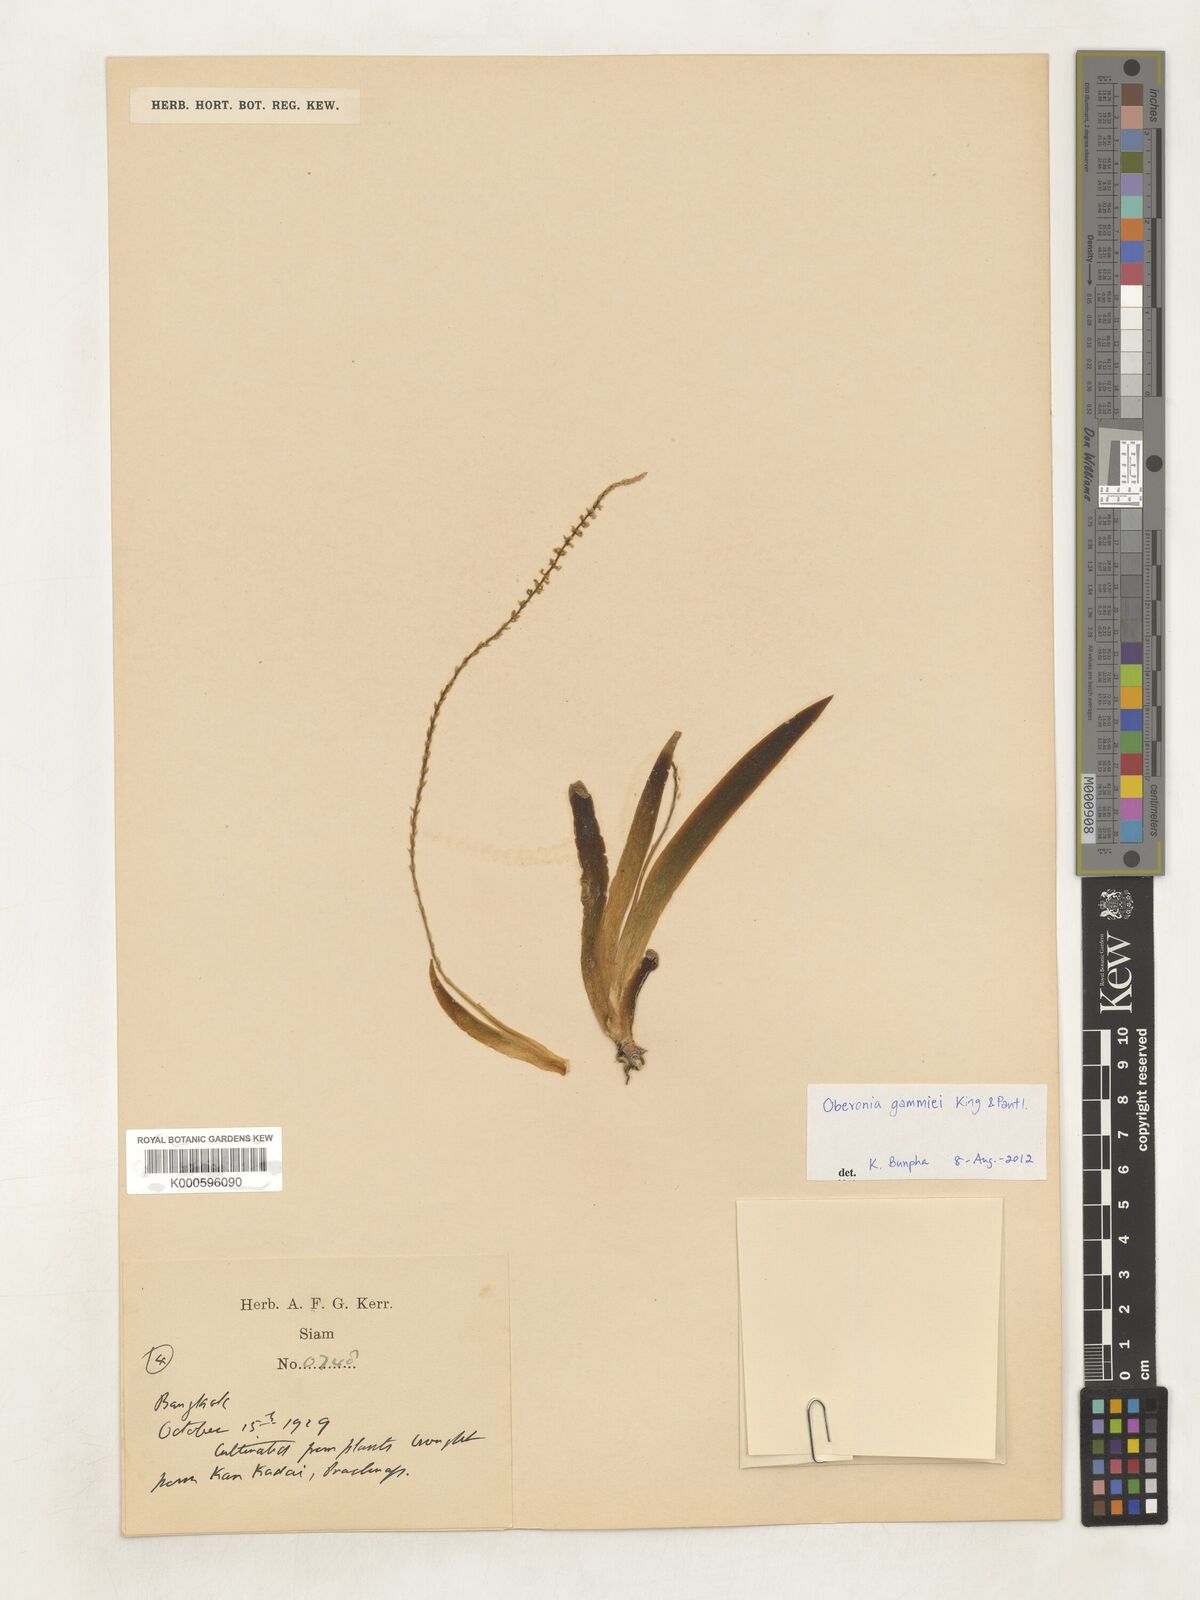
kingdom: Plantae
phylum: Tracheophyta
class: Liliopsida
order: Asparagales
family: Orchidaceae
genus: Oberonia
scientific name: Oberonia
